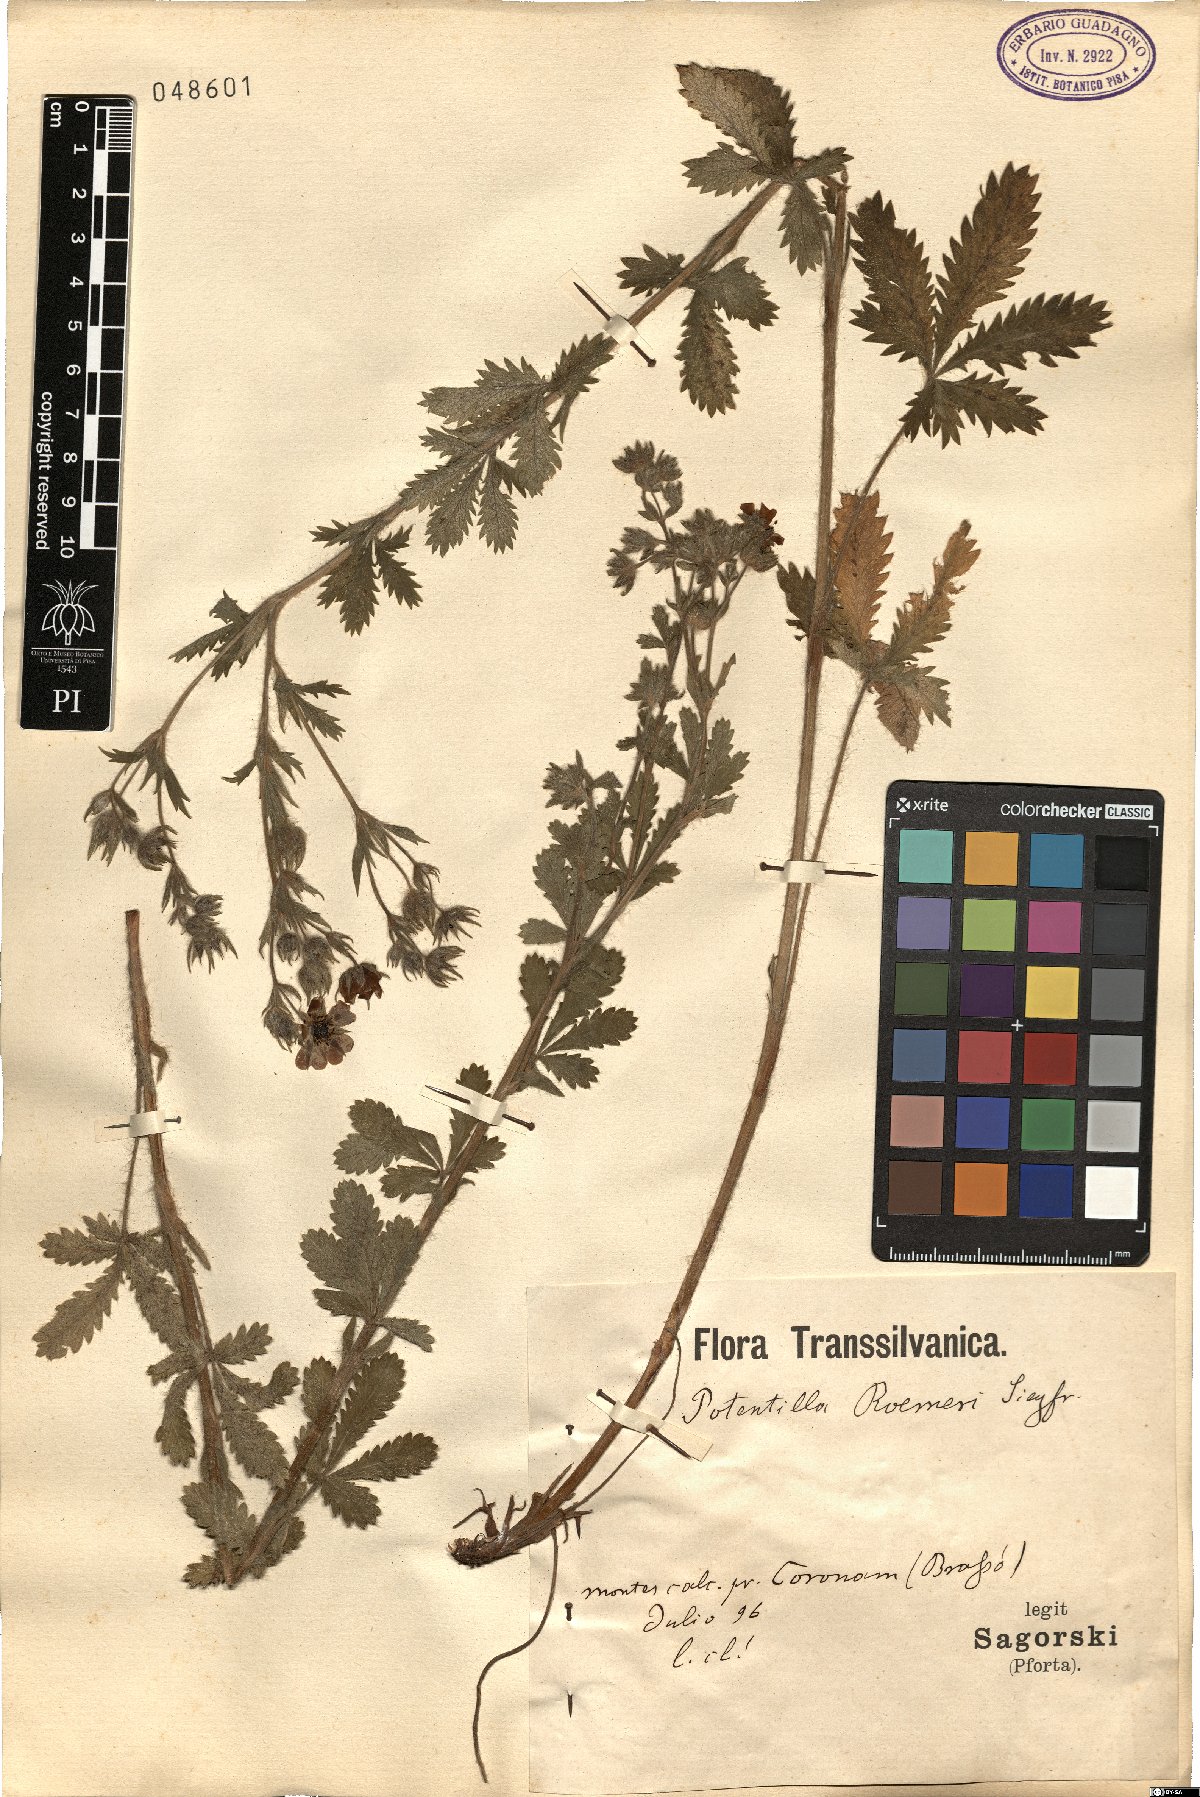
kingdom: Plantae
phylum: Tracheophyta
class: Magnoliopsida
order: Rosales
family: Rosaceae
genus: Potentilla
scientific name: Potentilla recta
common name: Sulphur cinquefoil
